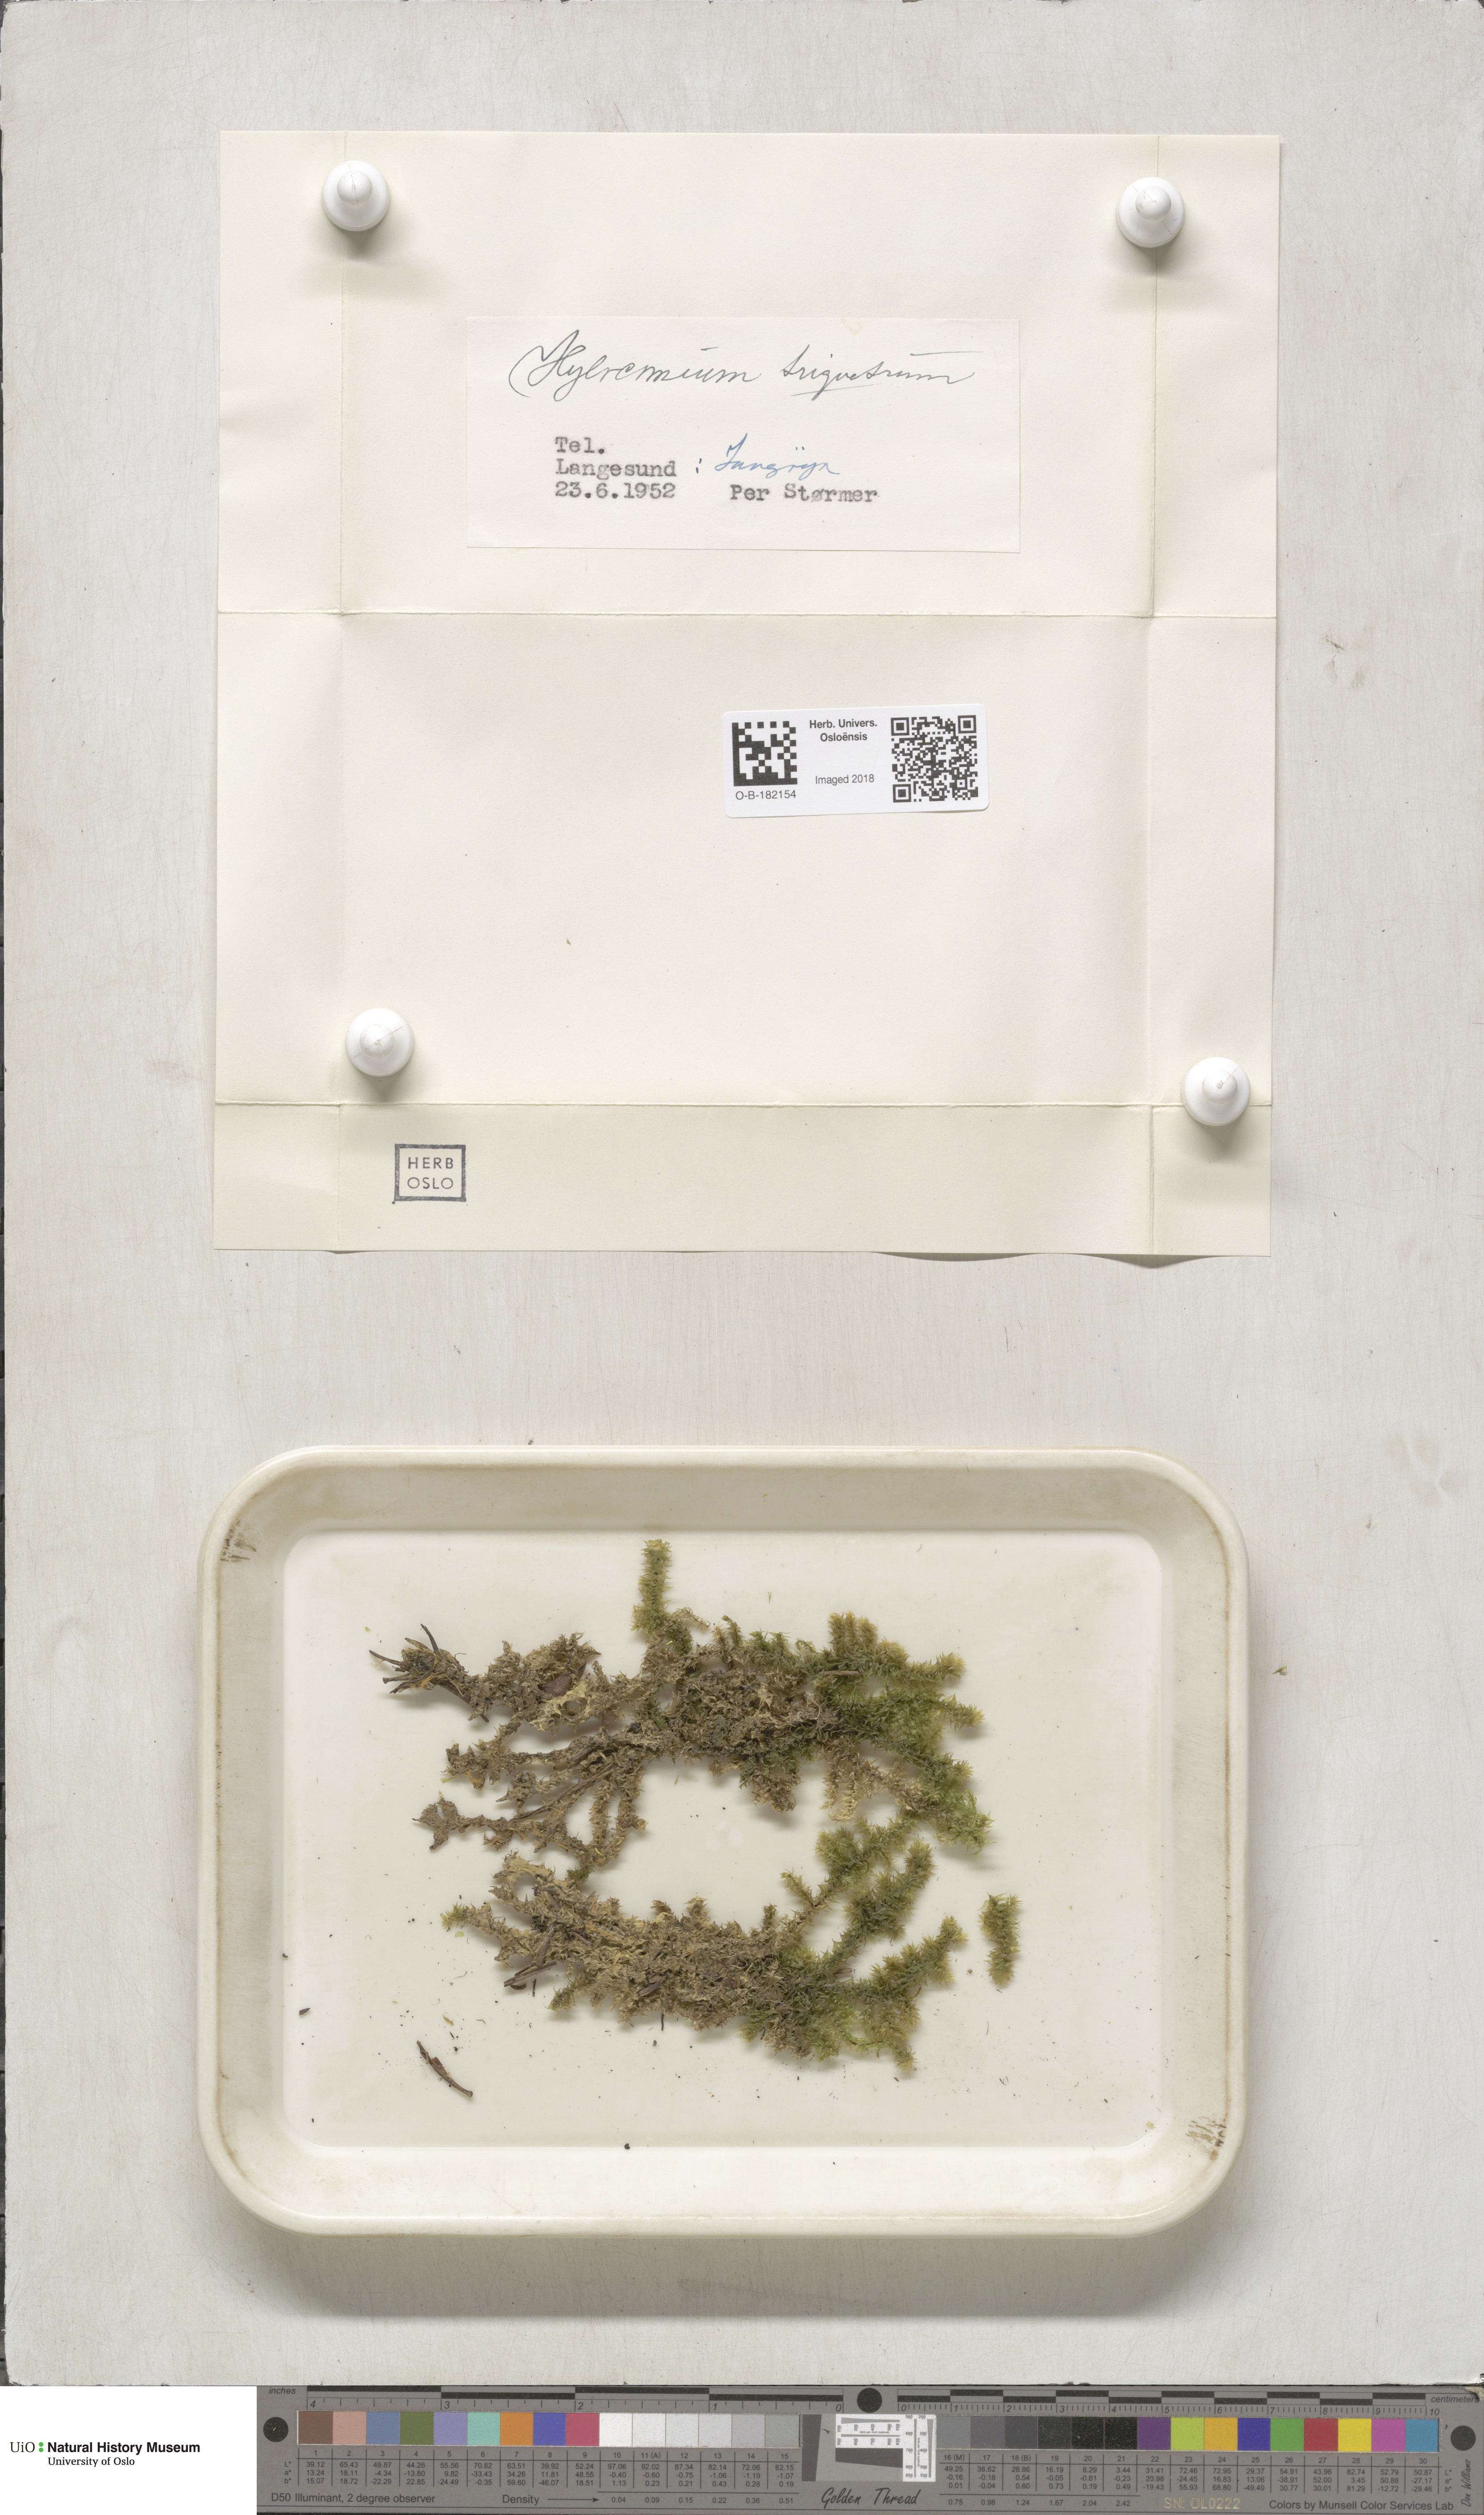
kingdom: Plantae
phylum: Bryophyta
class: Bryopsida
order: Hypnales
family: Hylocomiaceae
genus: Hylocomiadelphus
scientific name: Hylocomiadelphus triquetrus
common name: Rough goose neck moss
